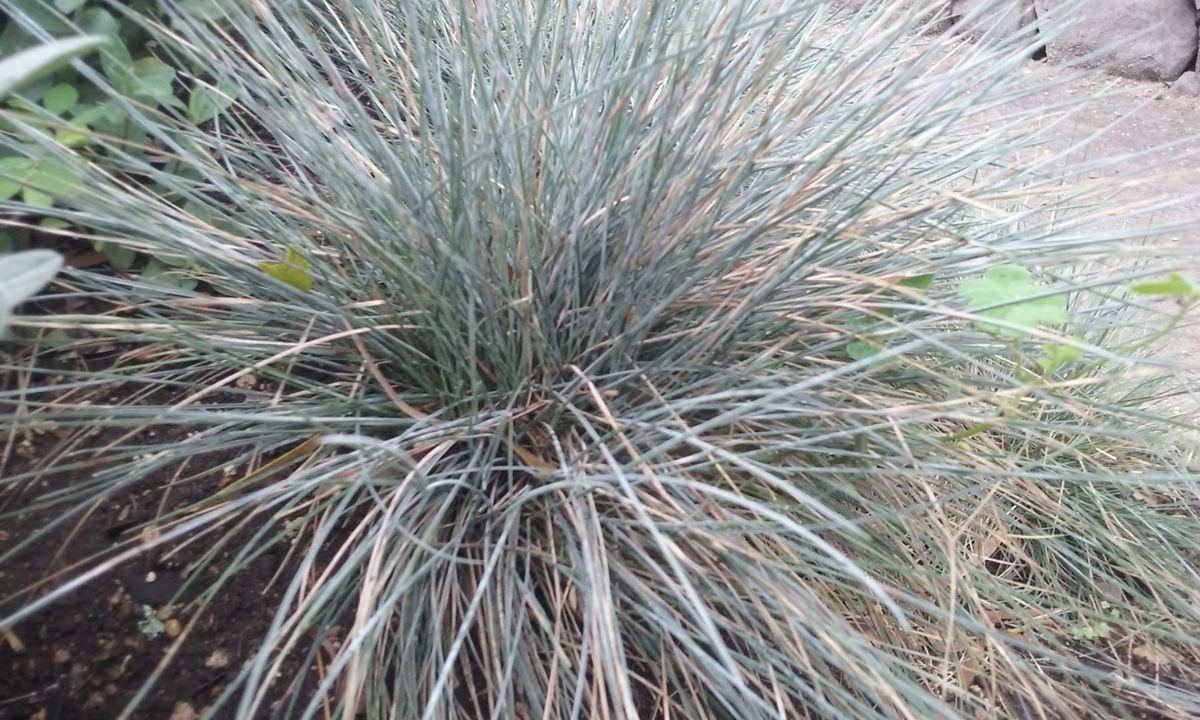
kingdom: Plantae
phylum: Tracheophyta
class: Liliopsida
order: Poales
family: Poaceae
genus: Festuca
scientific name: Festuca glauca
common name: Blue fescue
